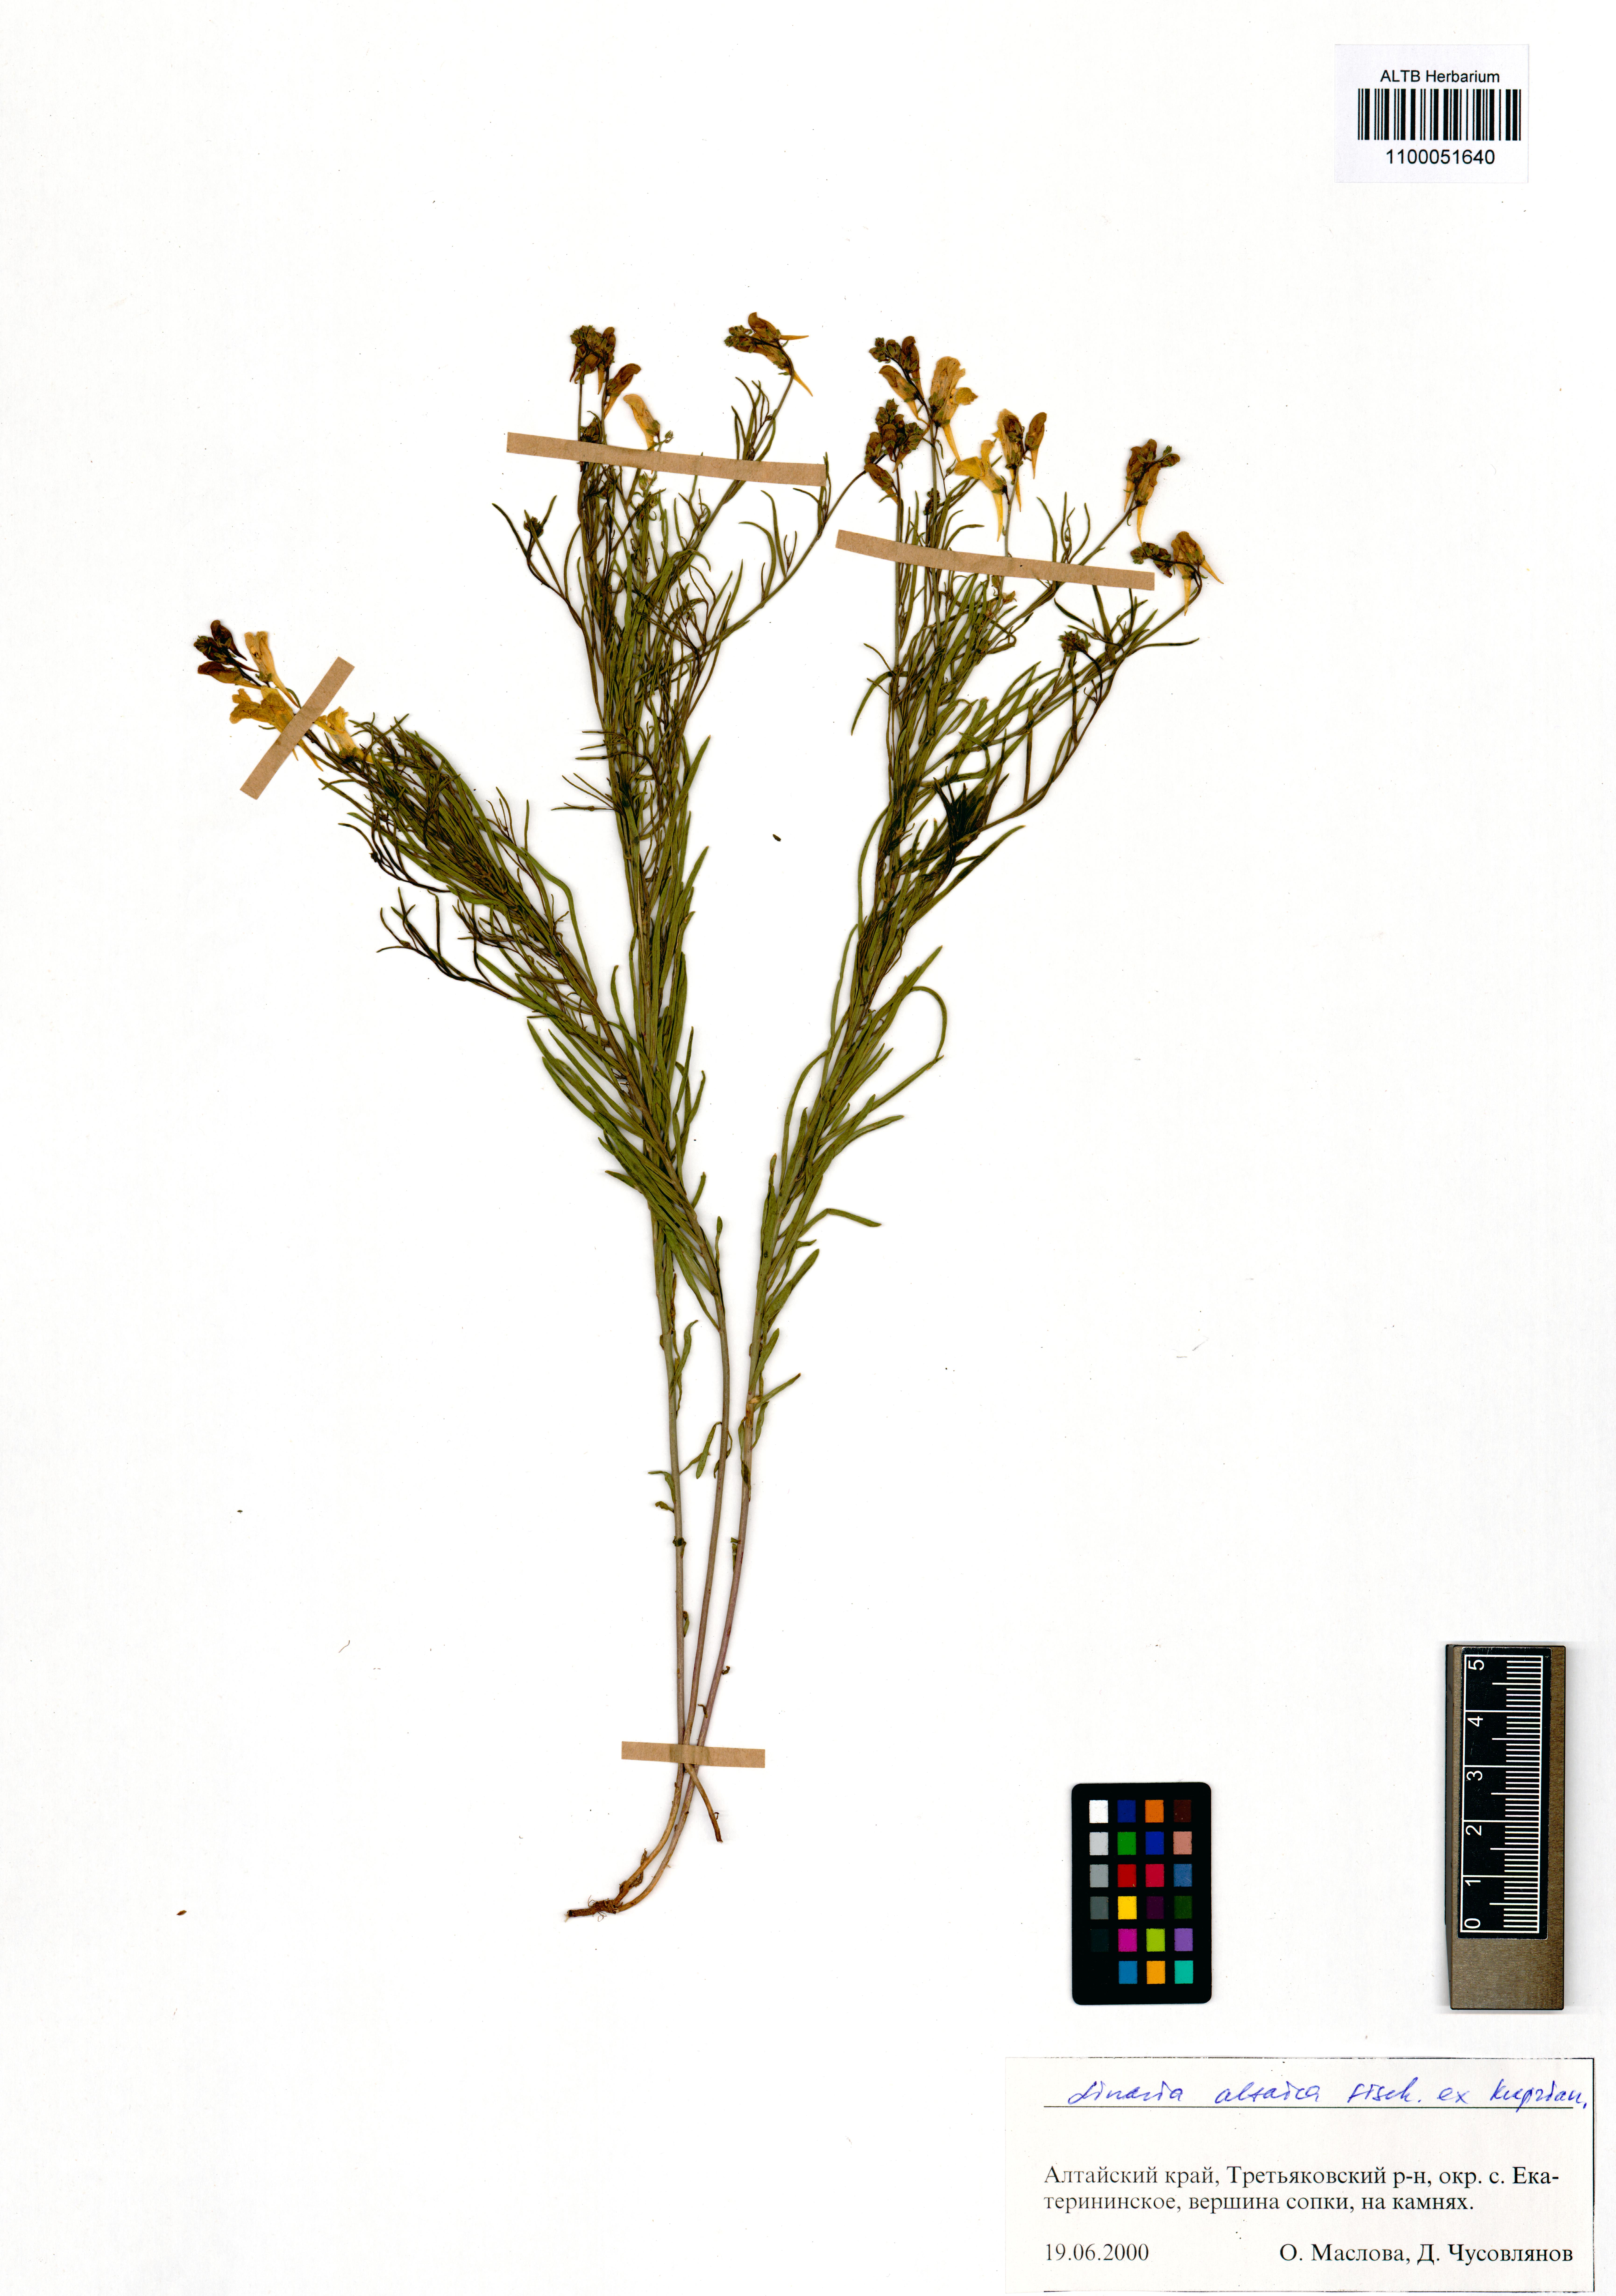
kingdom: Plantae
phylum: Tracheophyta
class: Magnoliopsida
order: Lamiales
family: Plantaginaceae
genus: Linaria
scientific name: Linaria altaica
